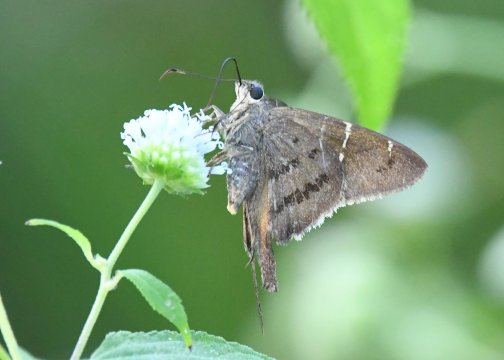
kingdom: Animalia
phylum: Arthropoda
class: Insecta
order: Lepidoptera
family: Hesperiidae
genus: Urbanus
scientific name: Urbanus tanna
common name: Tanna Longtail
